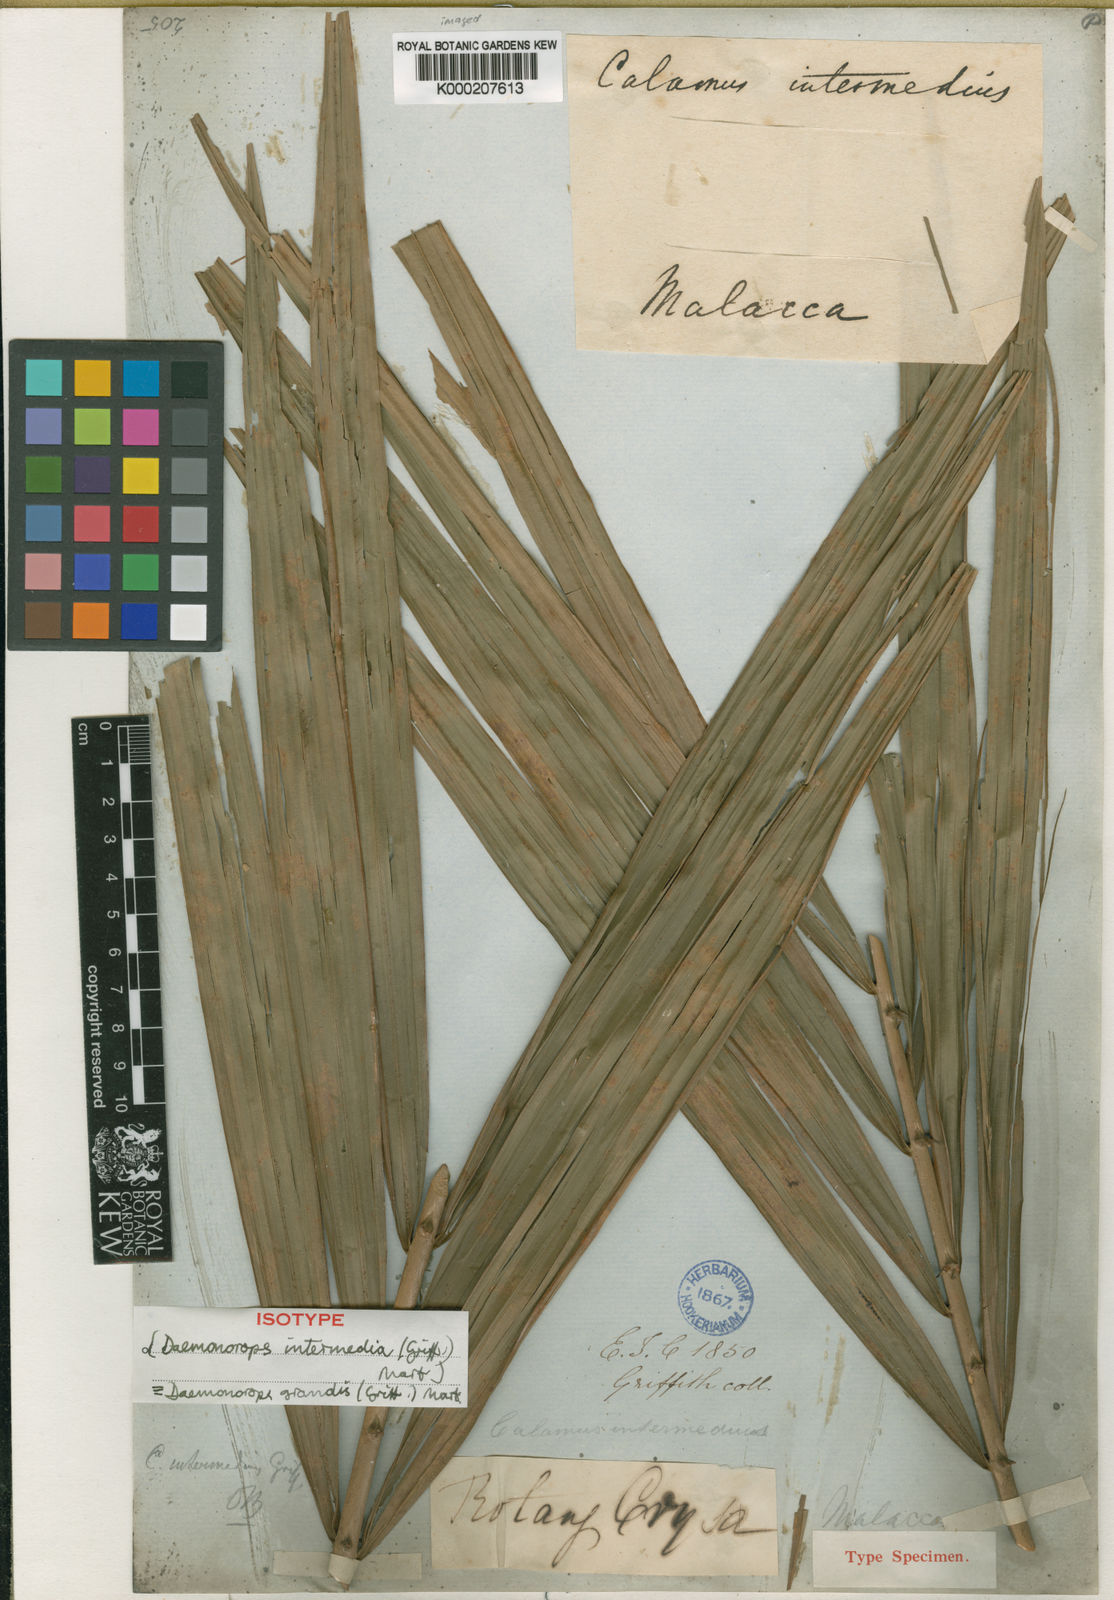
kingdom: Plantae
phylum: Tracheophyta
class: Liliopsida
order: Arecales
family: Arecaceae
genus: Calamus
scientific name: Calamus melanochaetes
